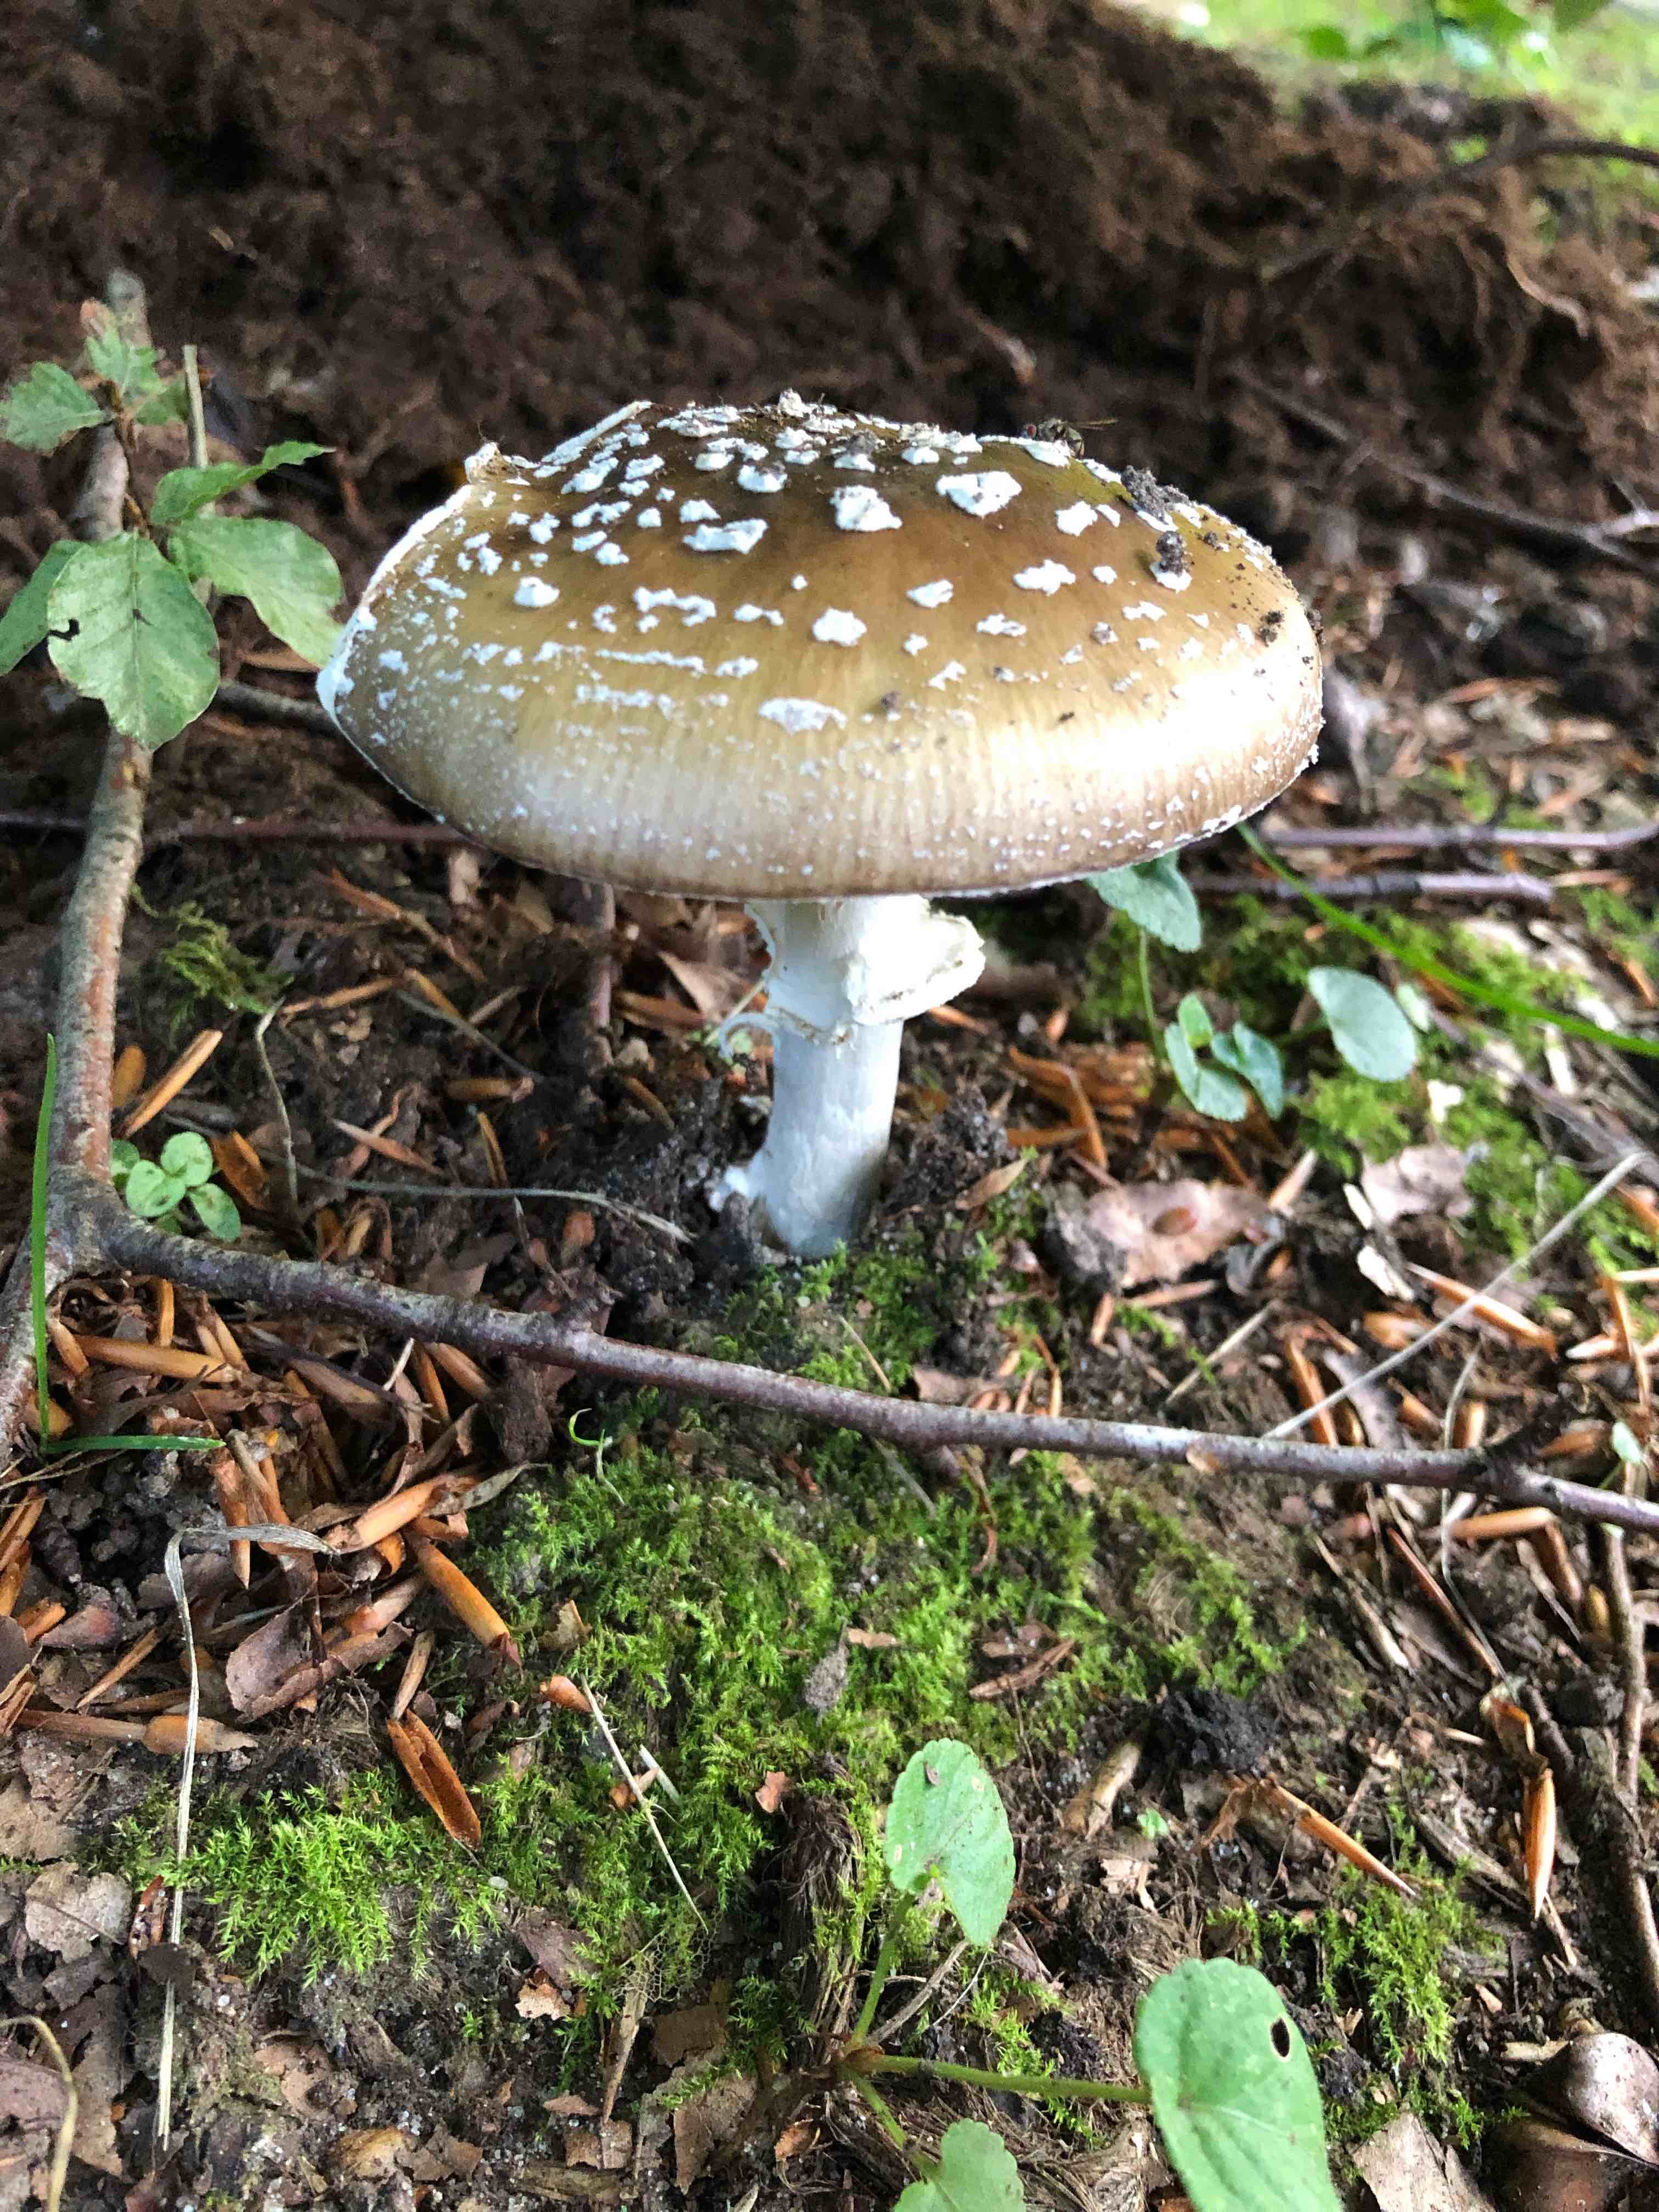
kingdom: Fungi
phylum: Basidiomycota
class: Agaricomycetes
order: Agaricales
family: Amanitaceae
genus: Amanita
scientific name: Amanita pantherina
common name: panter-fluesvamp
